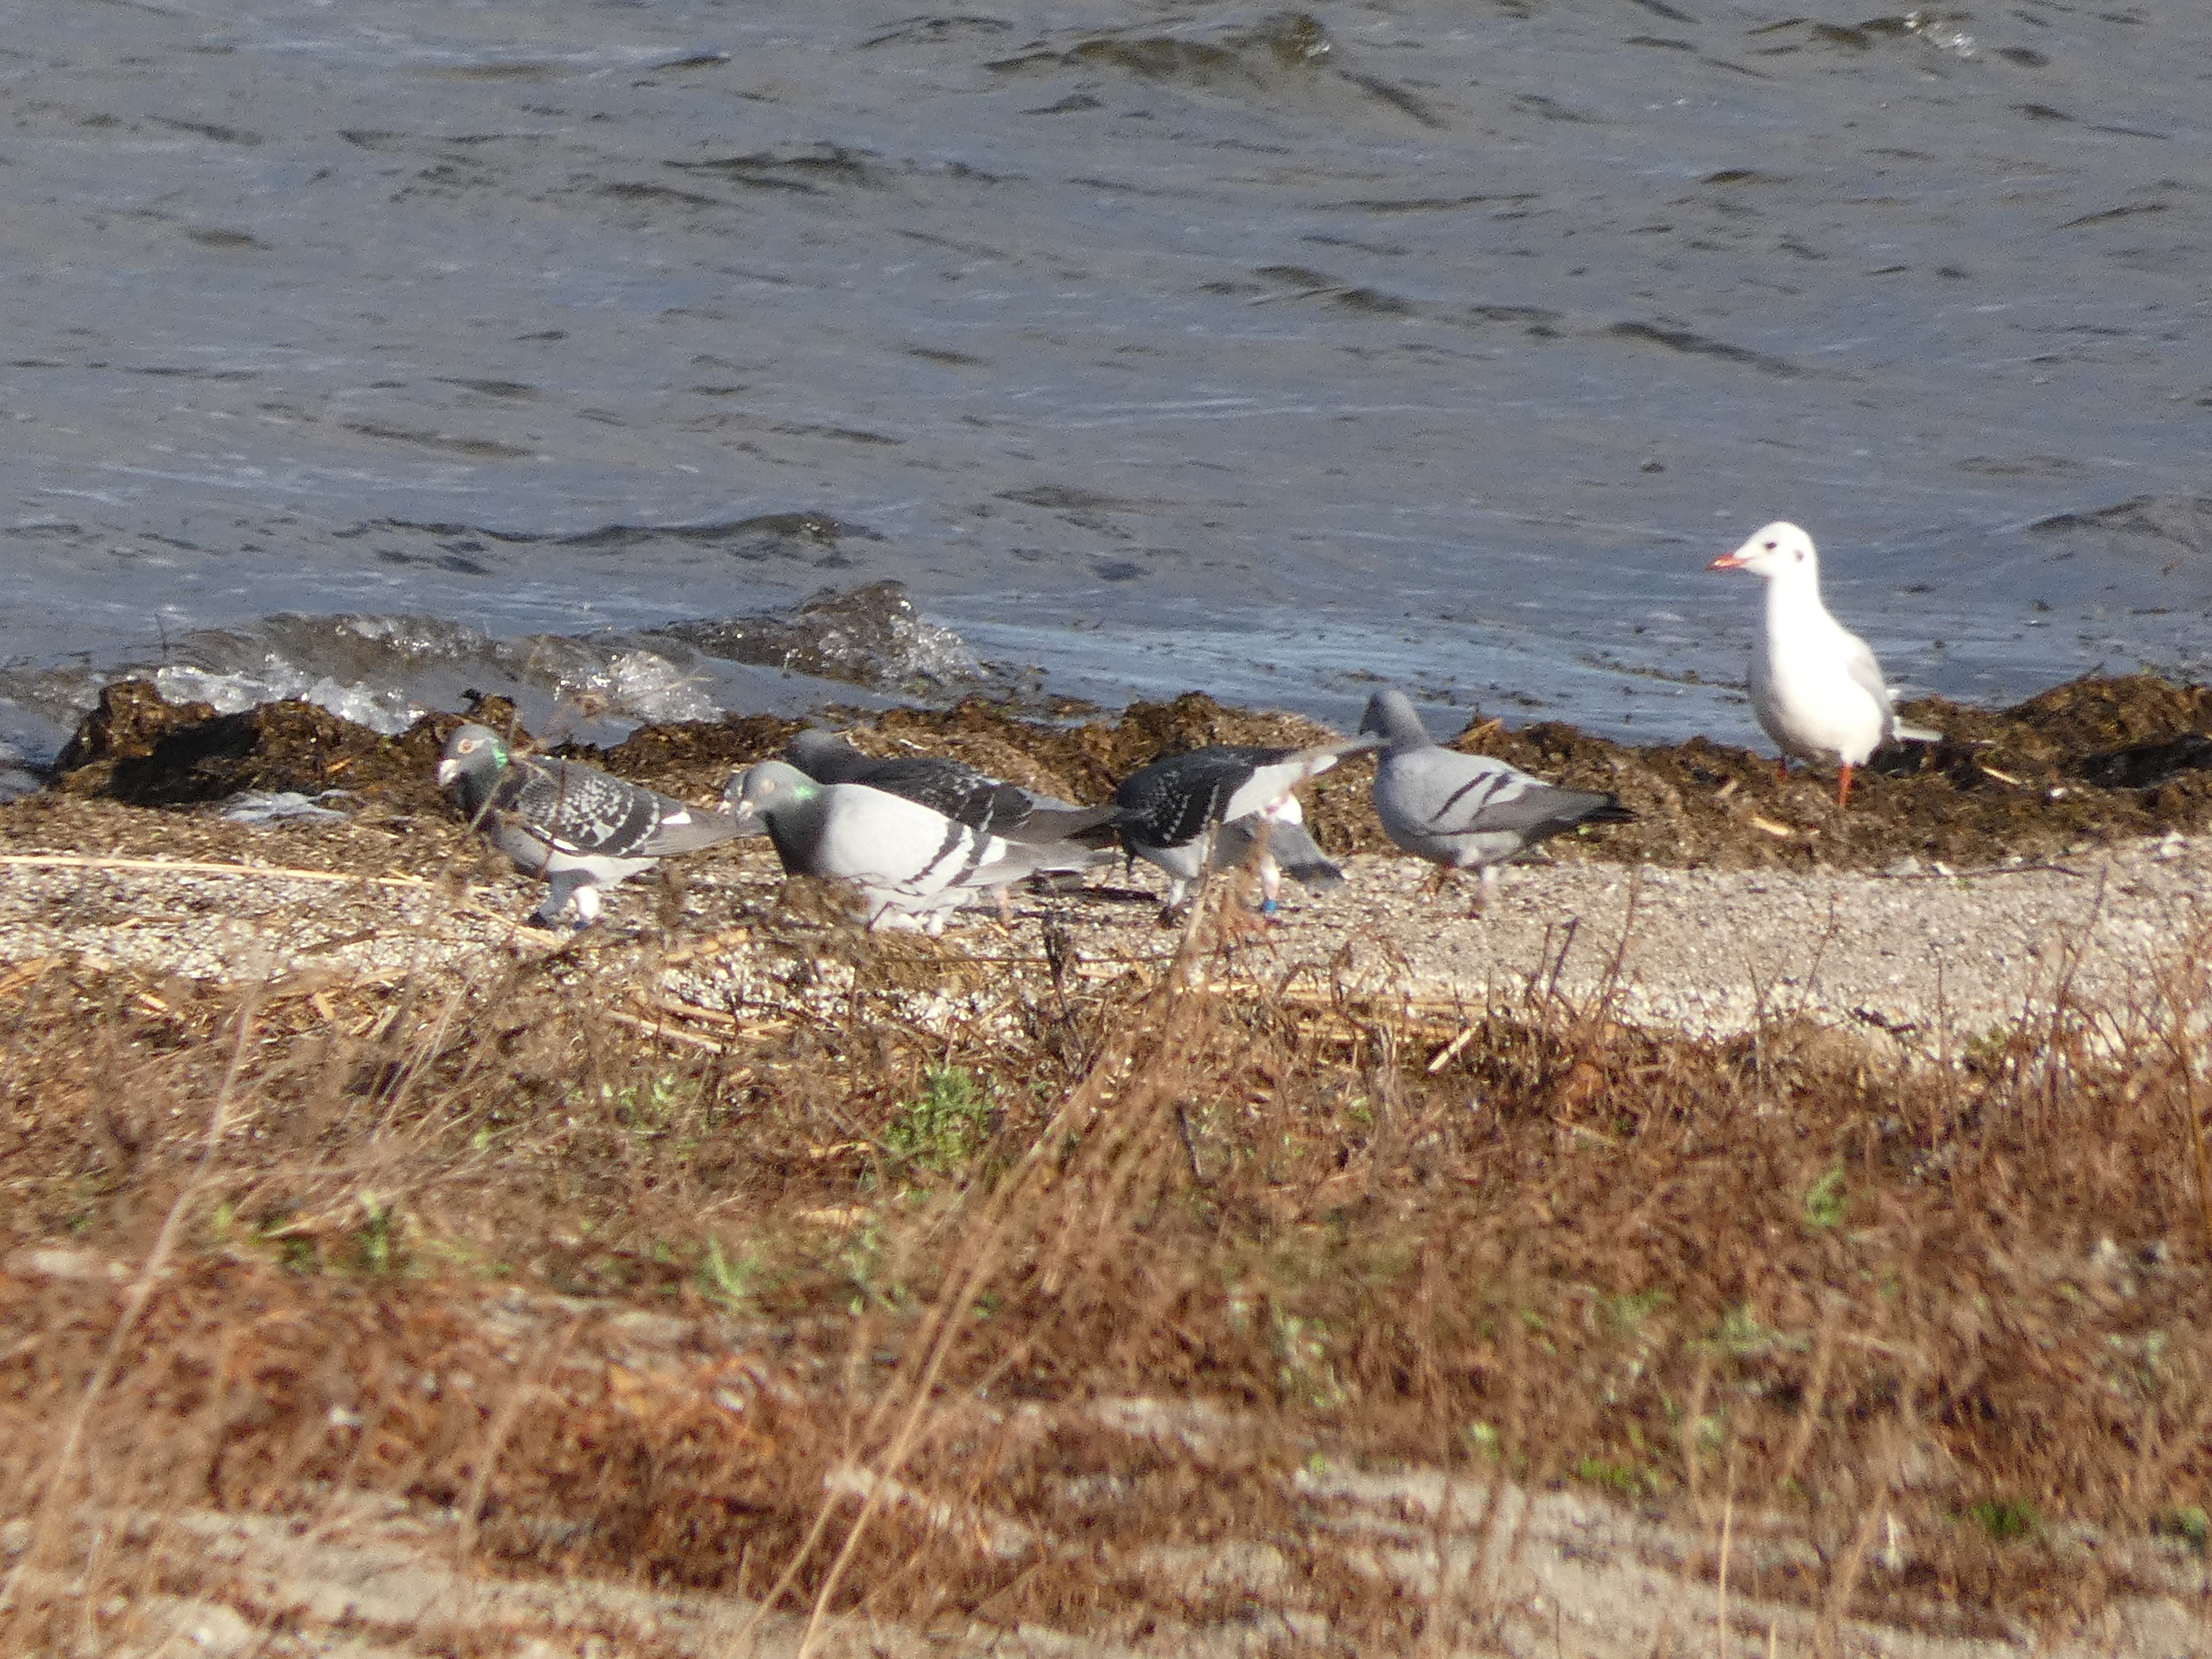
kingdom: Animalia
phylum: Chordata
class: Aves
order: Columbiformes
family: Columbidae
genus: Columba
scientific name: Columba livia
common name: Klippedue
